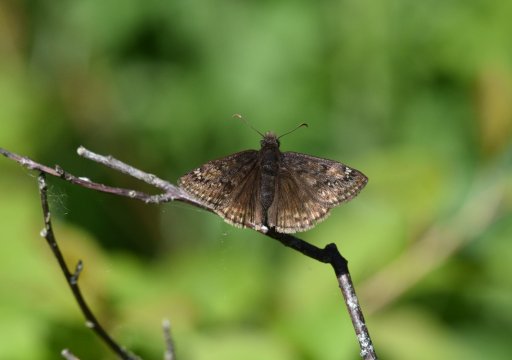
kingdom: Animalia
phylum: Arthropoda
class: Insecta
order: Lepidoptera
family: Hesperiidae
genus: Gesta
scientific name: Gesta
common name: Juvenal's Duskywing
